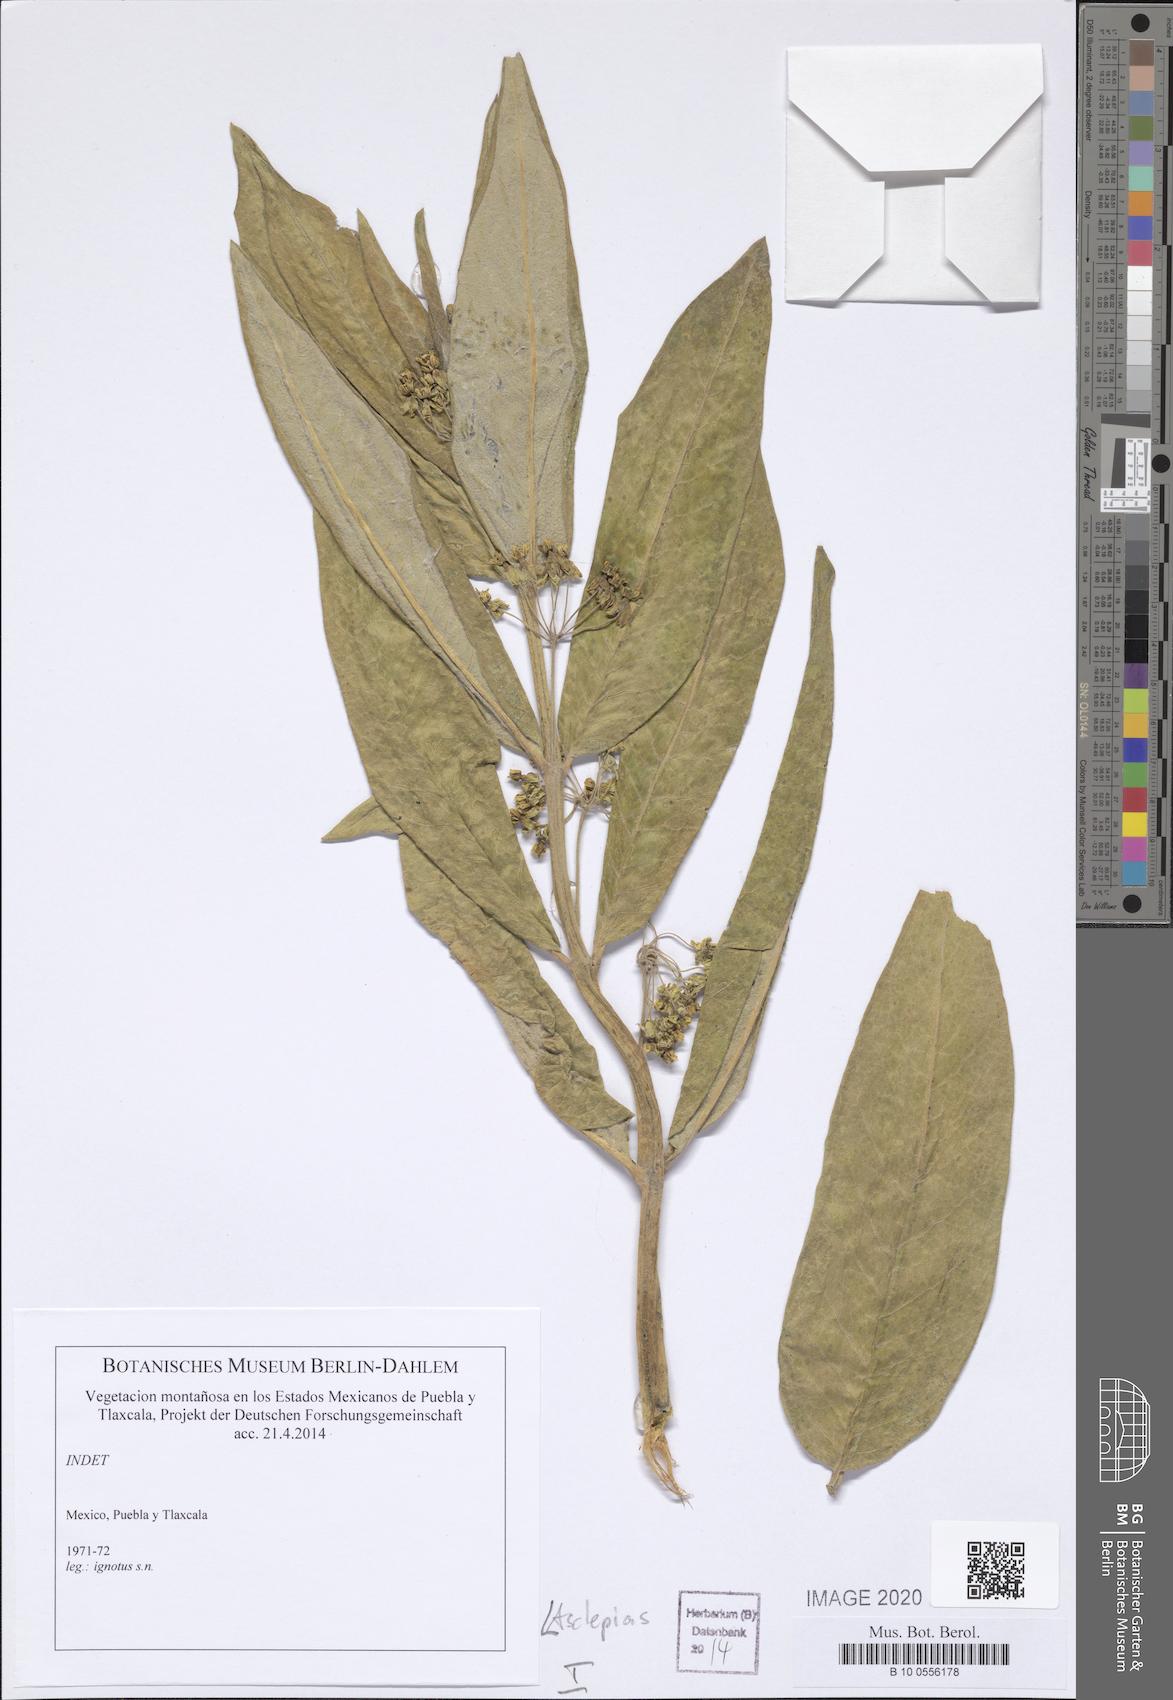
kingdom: Plantae
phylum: Tracheophyta
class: Magnoliopsida
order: Gentianales
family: Apocynaceae
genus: Asclepias
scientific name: Asclepias
